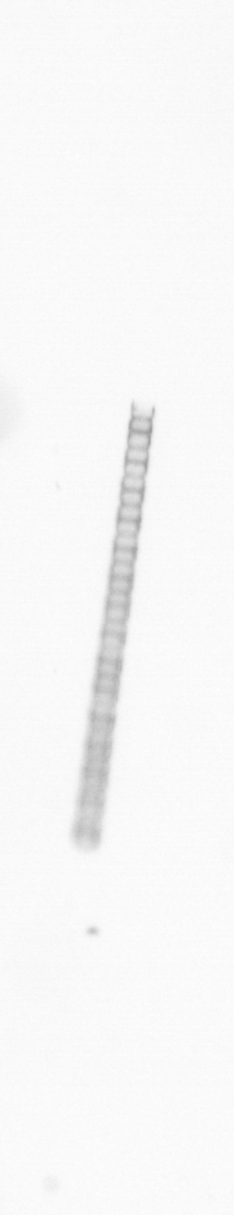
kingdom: Chromista
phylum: Ochrophyta
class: Bacillariophyceae
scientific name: Bacillariophyceae
